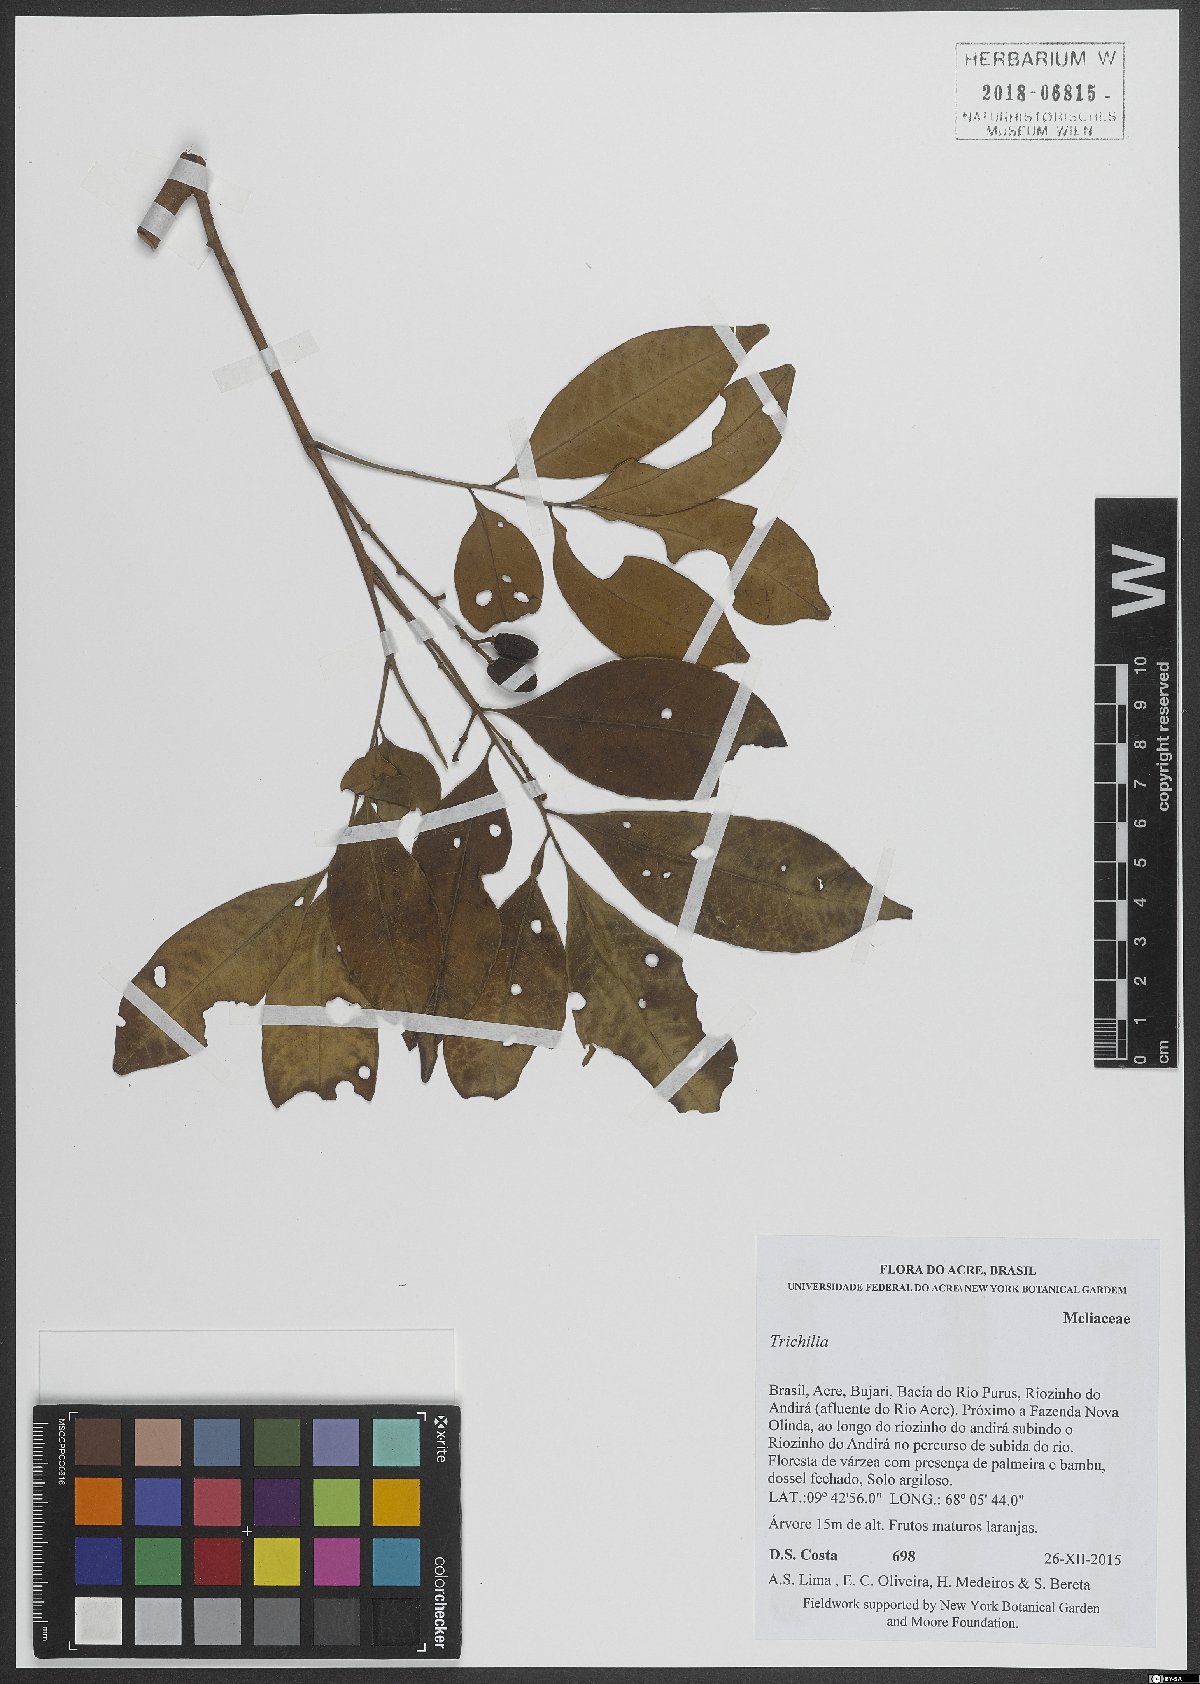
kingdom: Plantae
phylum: Tracheophyta
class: Magnoliopsida
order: Sapindales
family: Meliaceae
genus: Trichilia
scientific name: Trichilia
